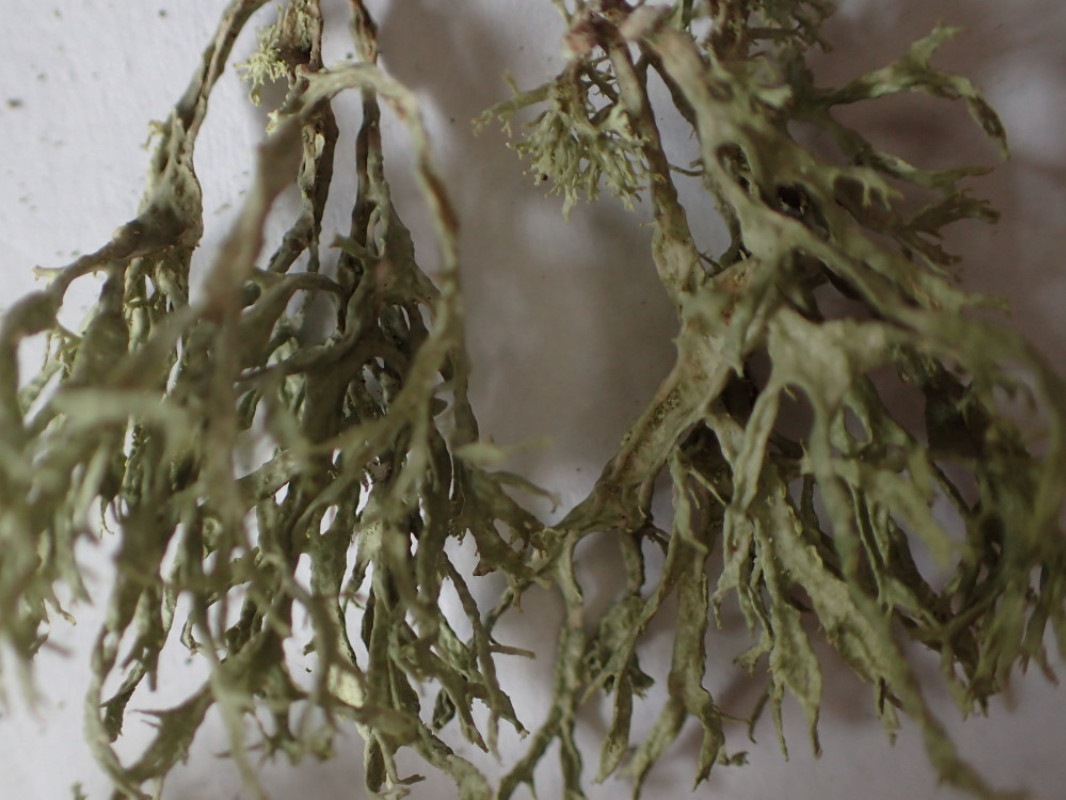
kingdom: Fungi
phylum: Ascomycota
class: Lecanoromycetes
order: Lecanorales
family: Ramalinaceae
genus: Ramalina
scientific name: Ramalina farinacea
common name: melet grenlav
